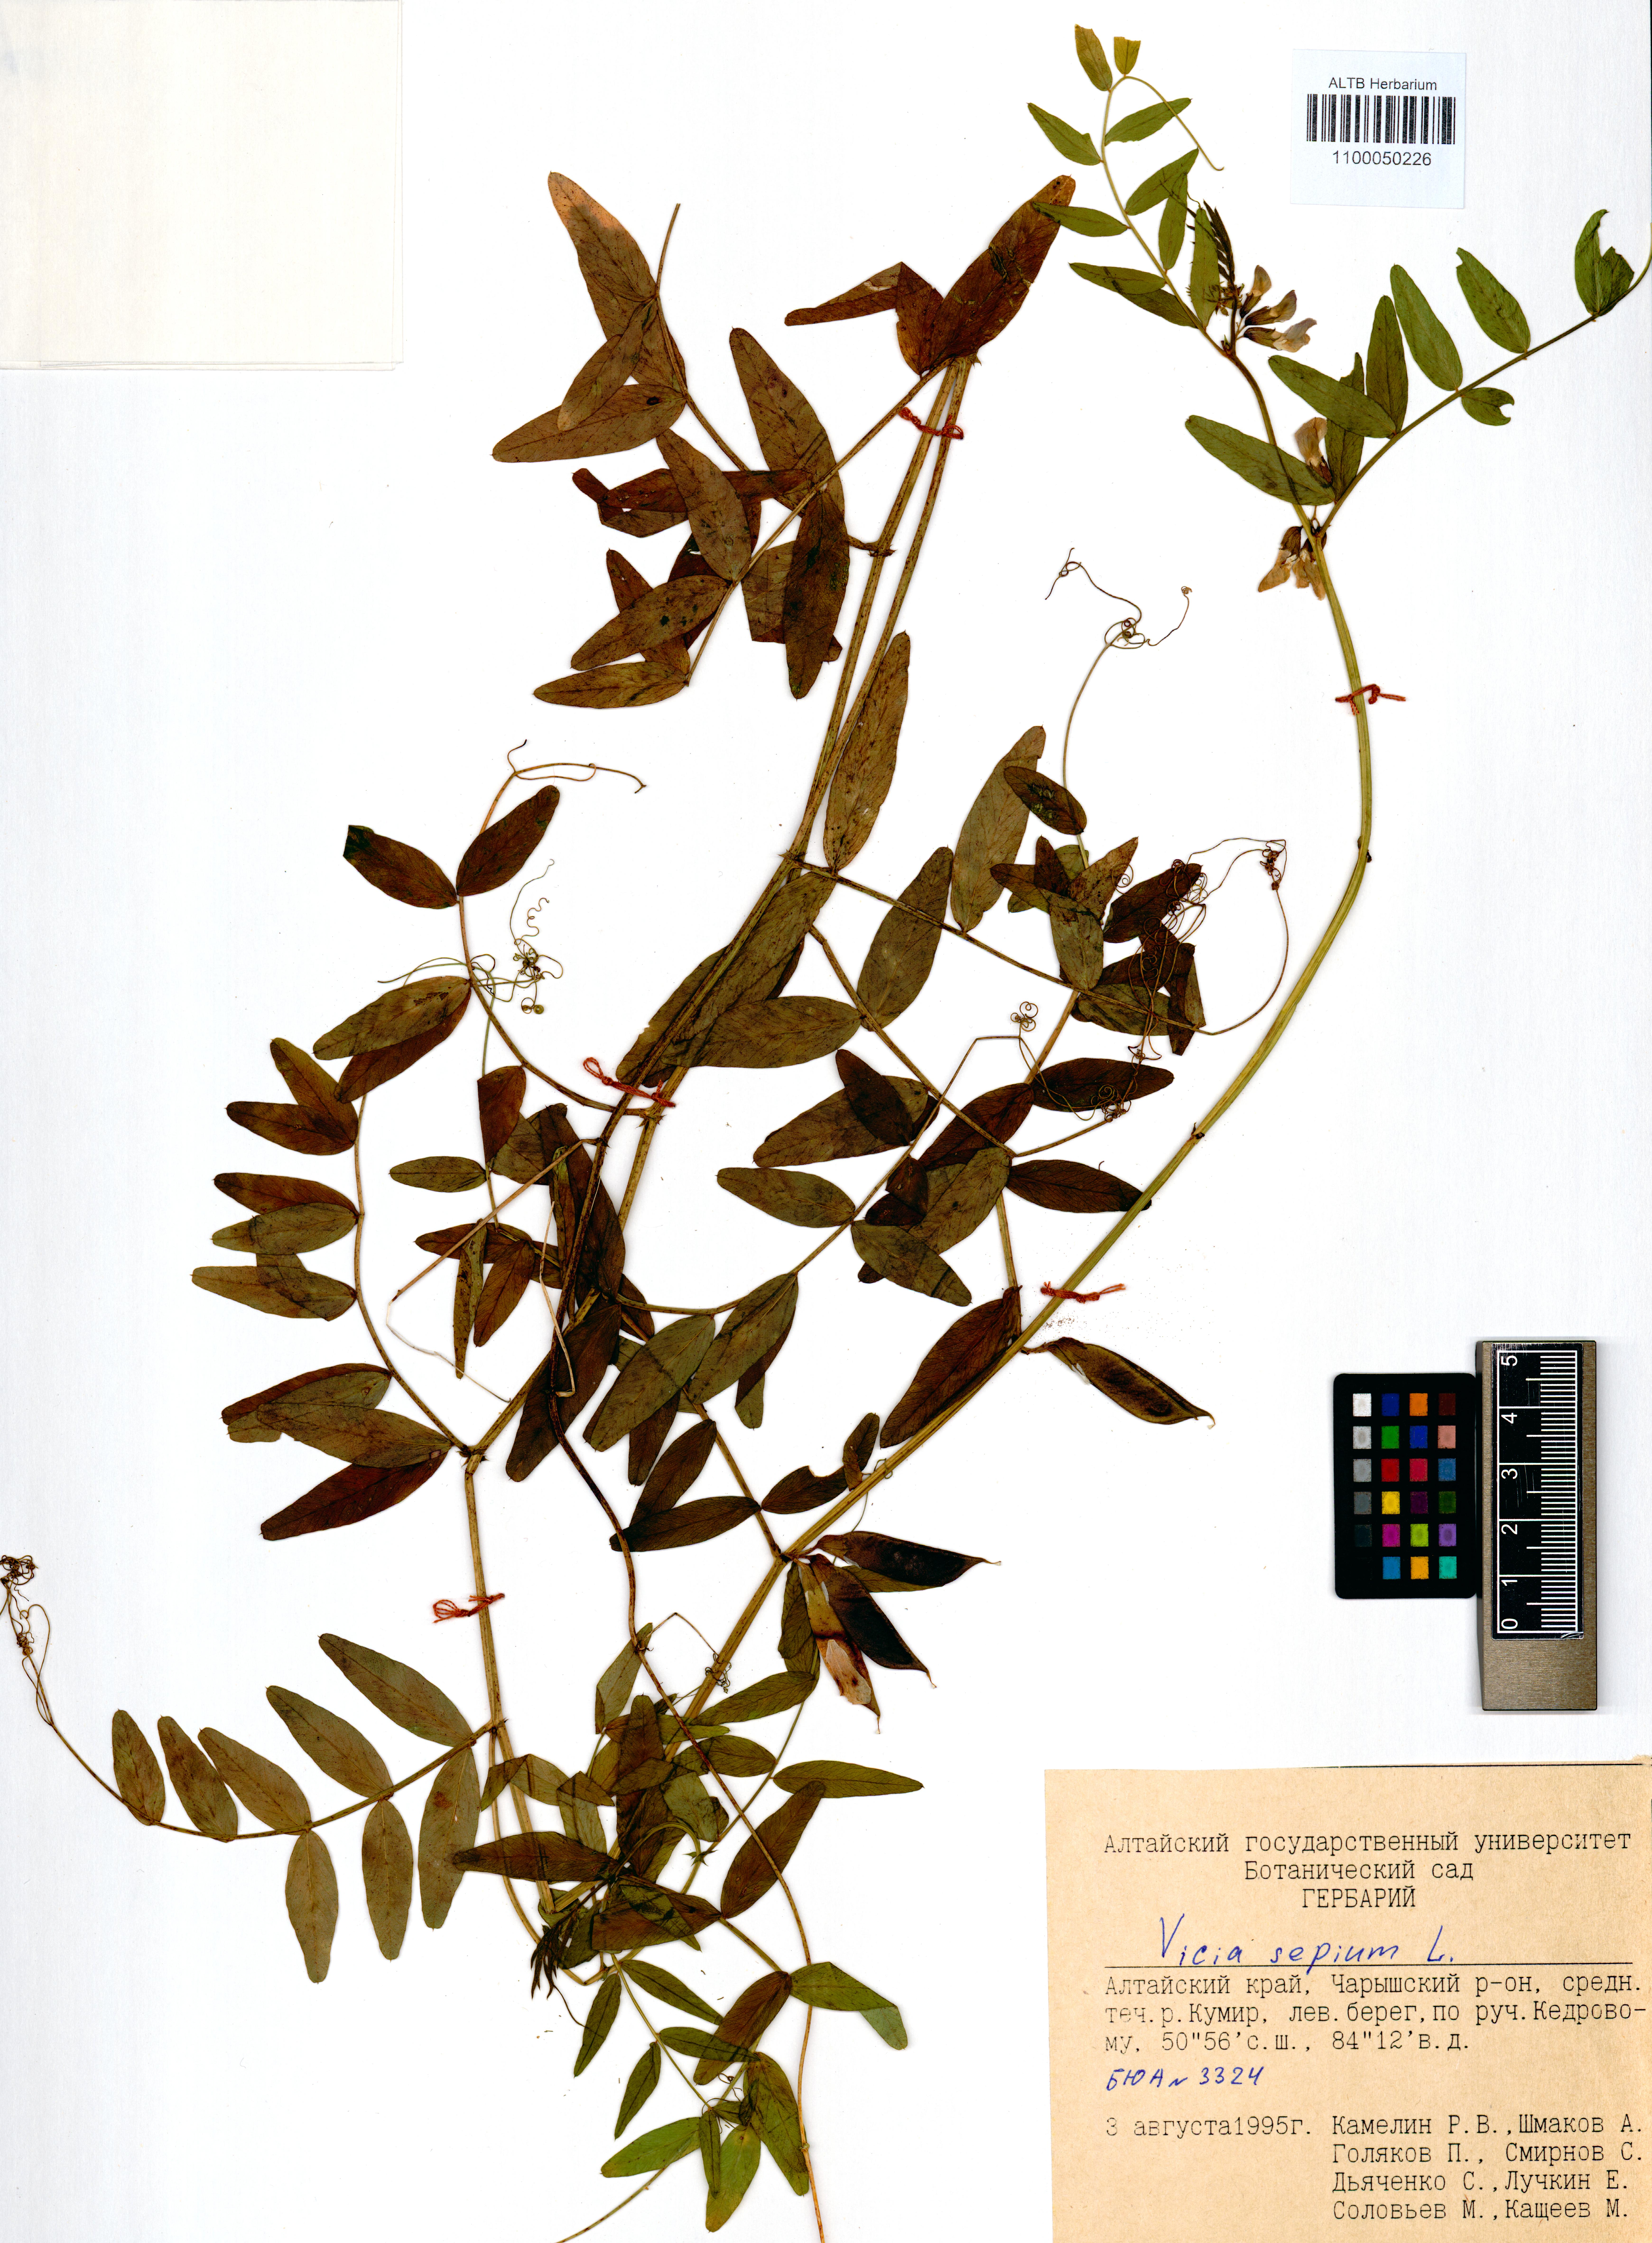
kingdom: Plantae
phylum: Tracheophyta
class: Magnoliopsida
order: Fabales
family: Fabaceae
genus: Vicia
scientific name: Vicia sepium
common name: Bush vetch
